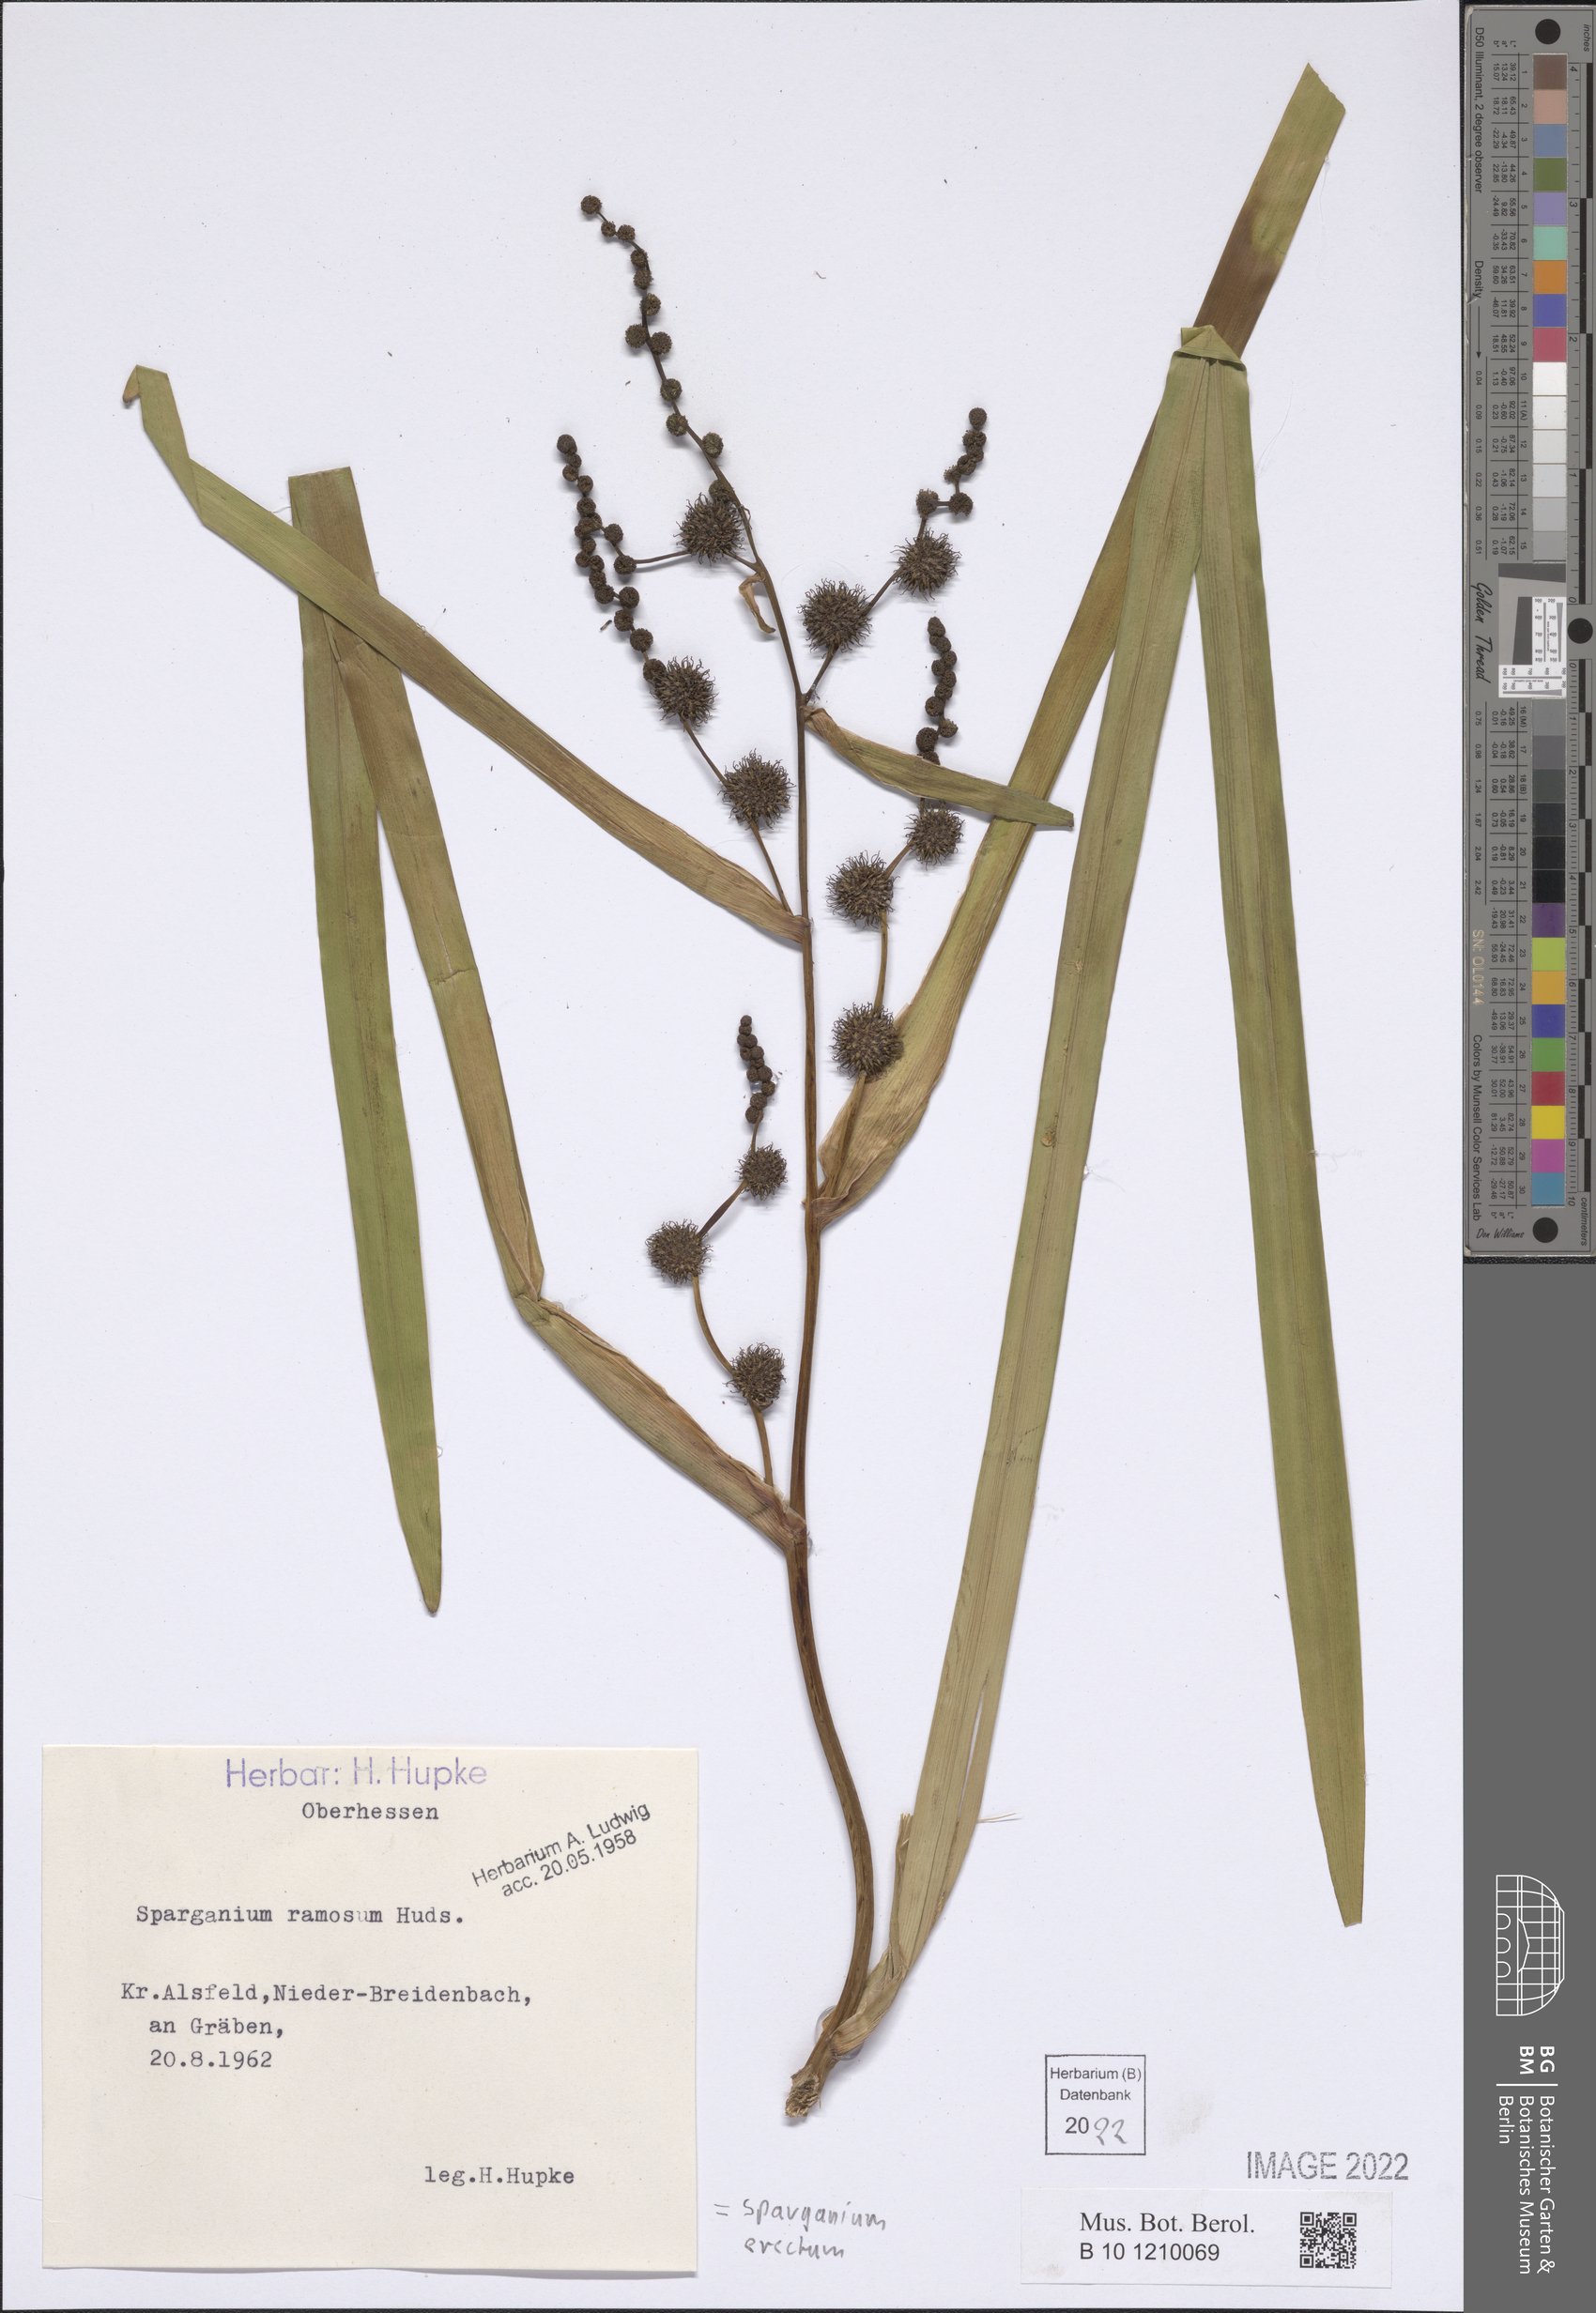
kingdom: Plantae
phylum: Tracheophyta
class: Liliopsida
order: Poales
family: Typhaceae
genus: Sparganium
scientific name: Sparganium erectum
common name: Branched bur-reed
